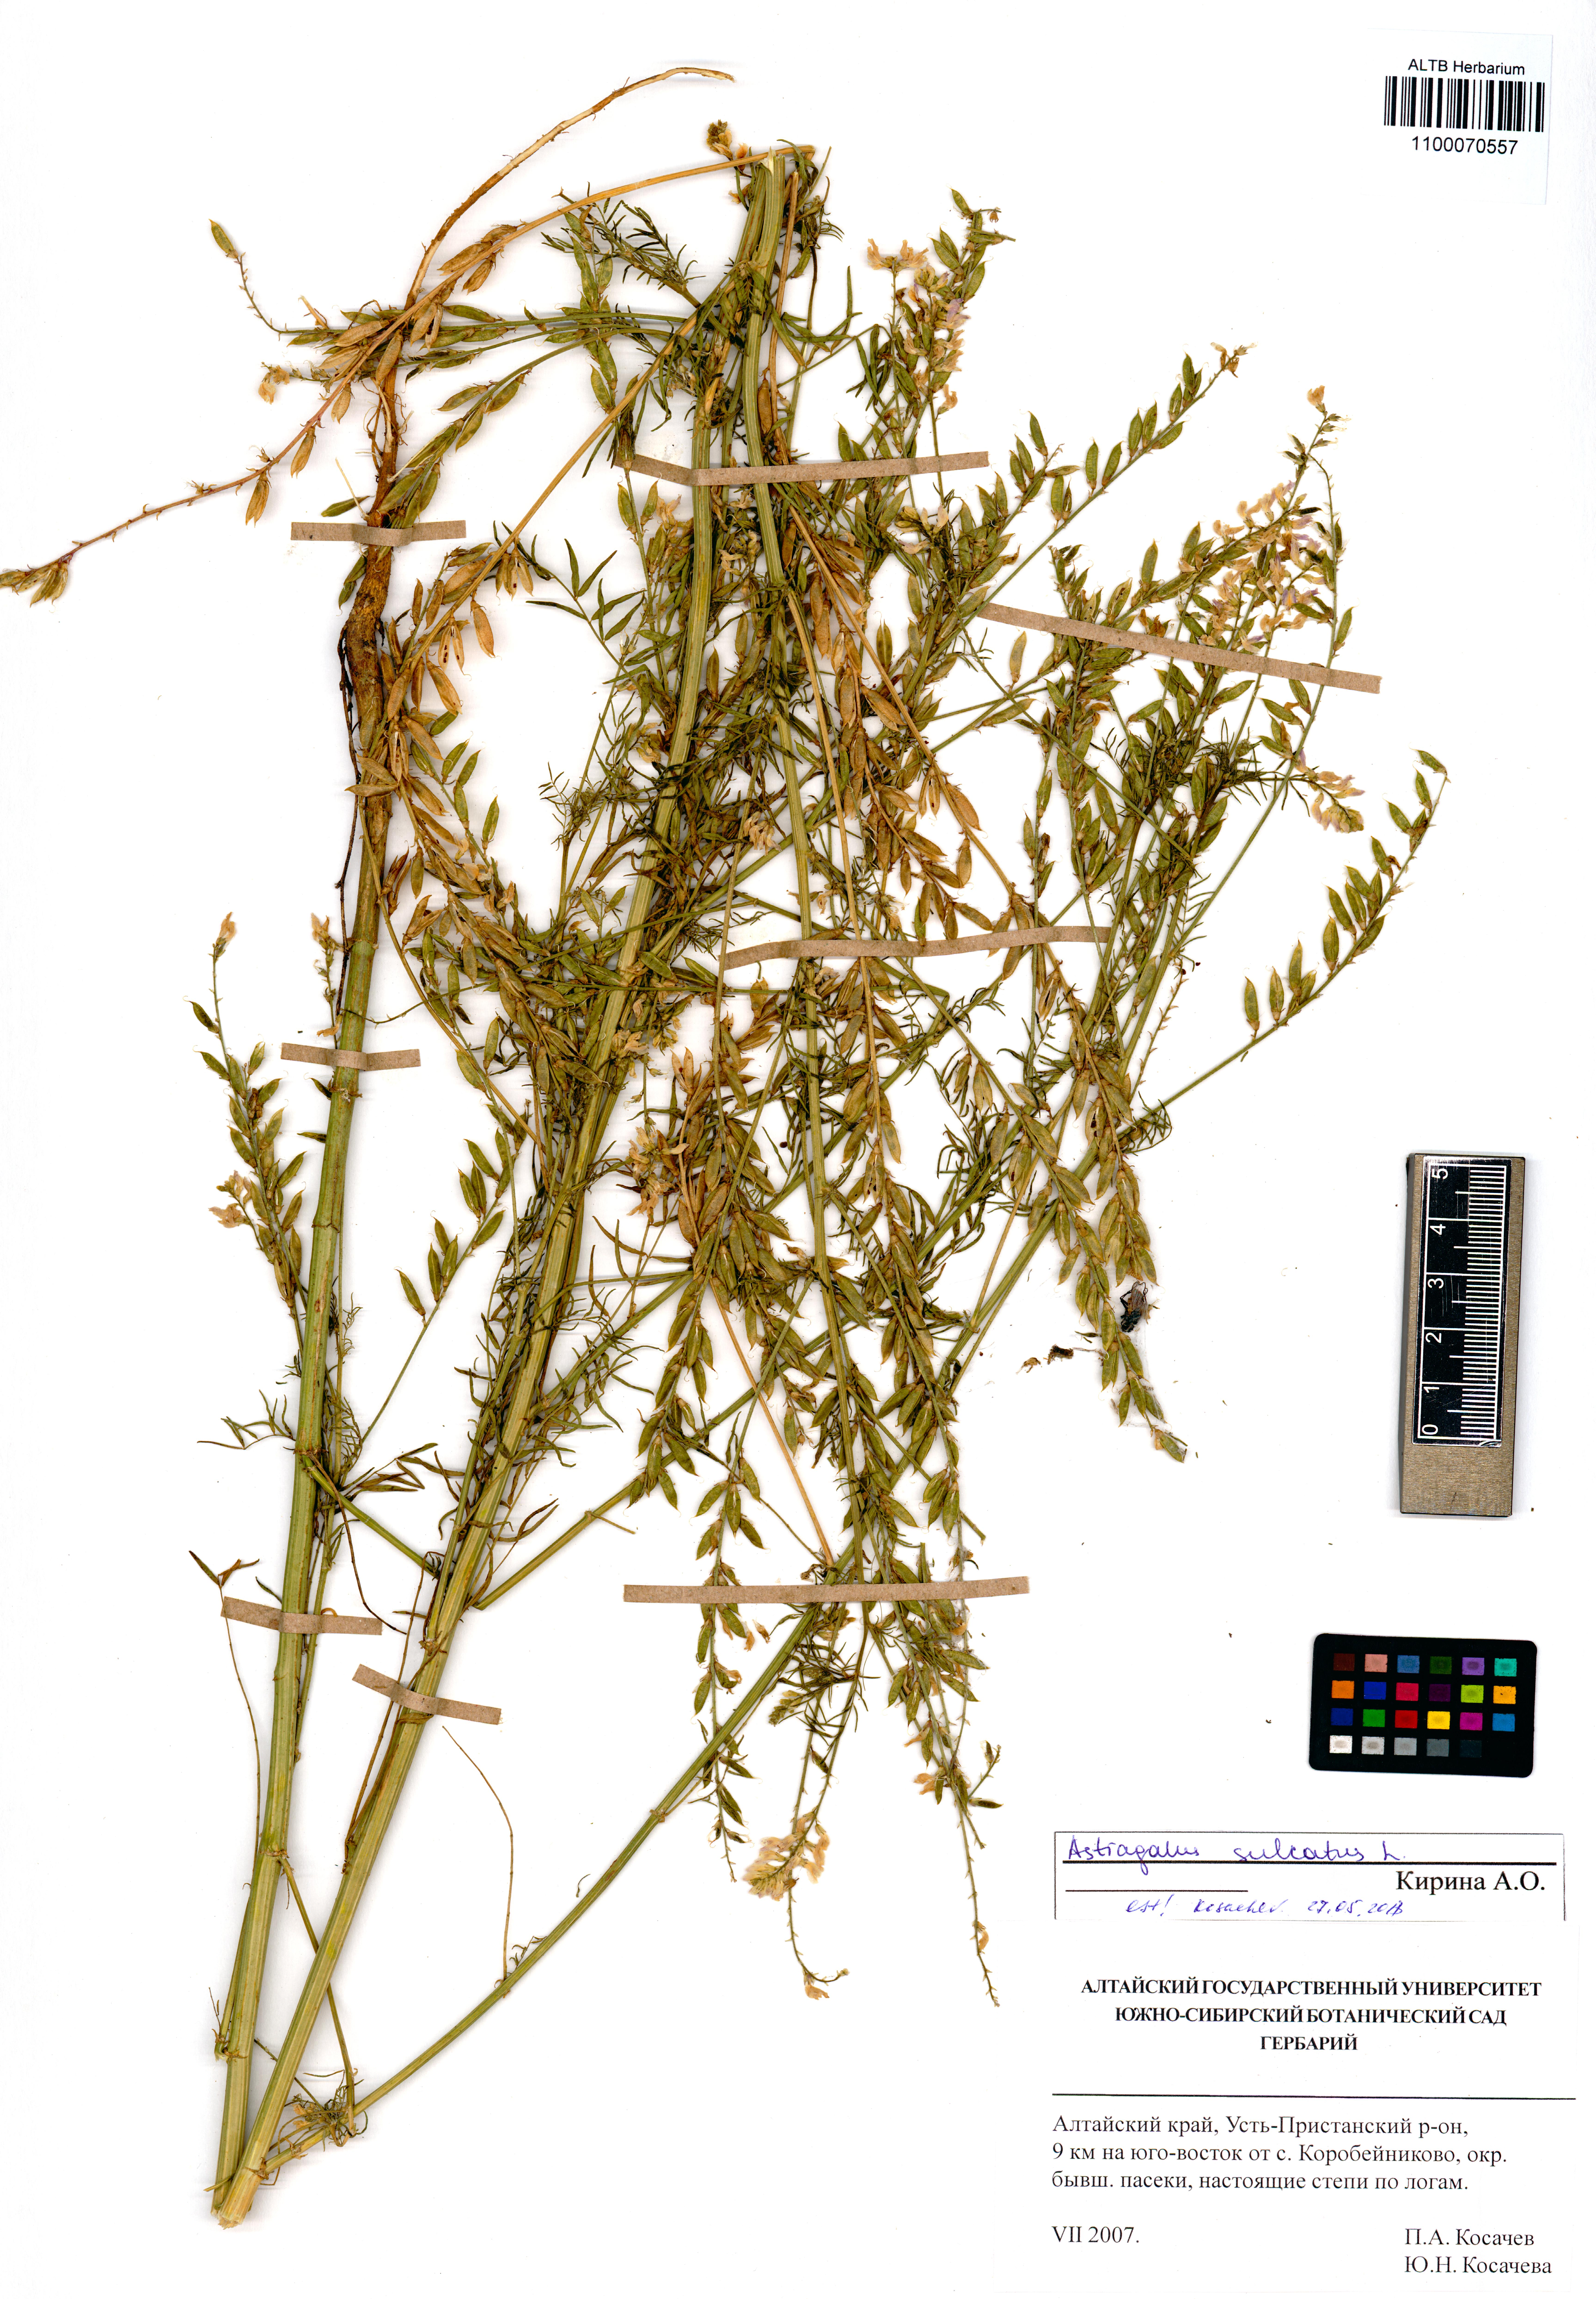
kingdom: Plantae
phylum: Tracheophyta
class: Magnoliopsida
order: Fabales
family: Fabaceae
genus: Astragalus
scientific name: Astragalus sulcatus
